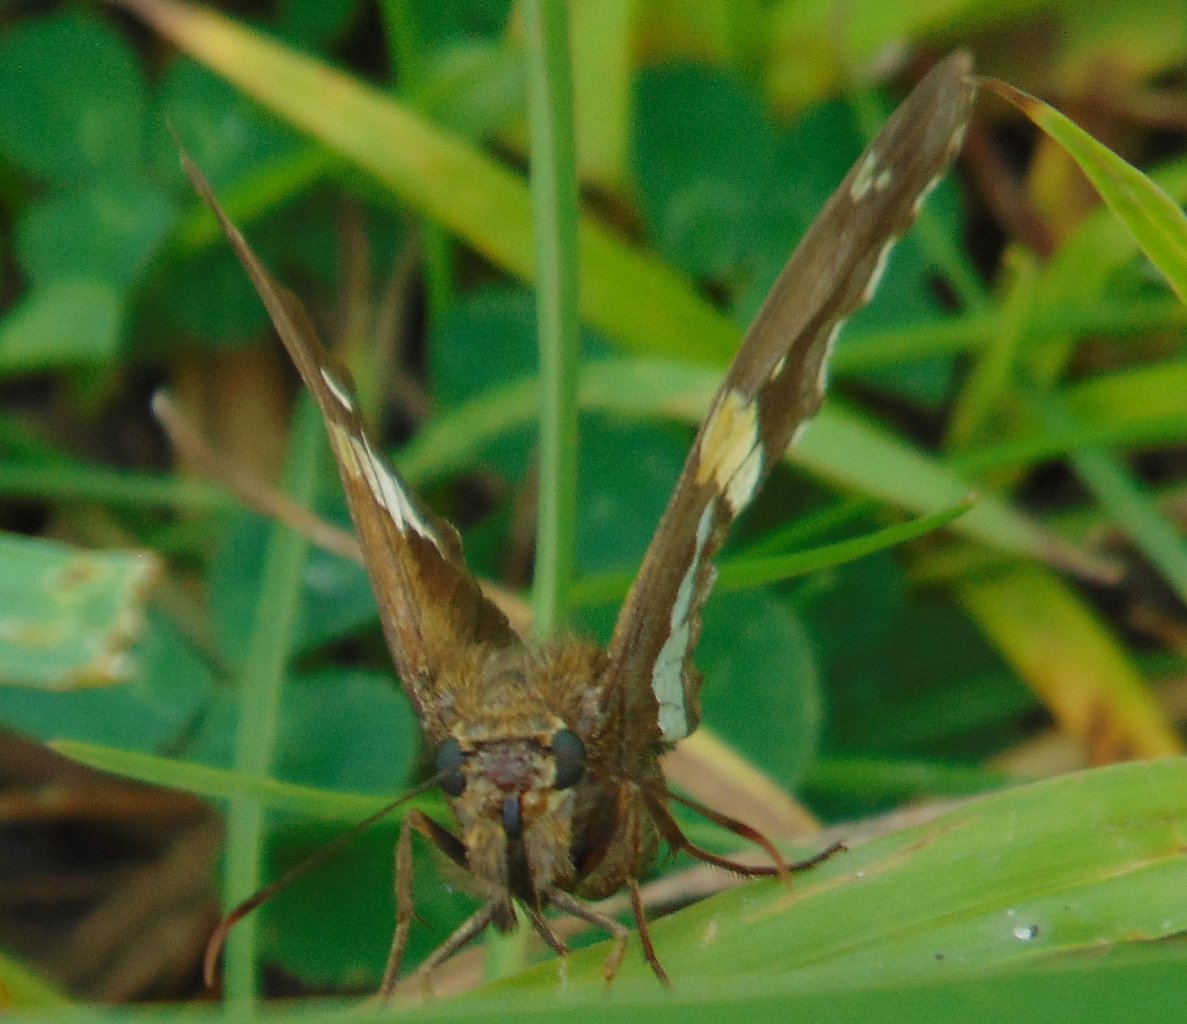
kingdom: Animalia
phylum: Arthropoda
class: Insecta
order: Lepidoptera
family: Hesperiidae
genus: Epargyreus
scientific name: Epargyreus clarus
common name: Silver-spotted Skipper
